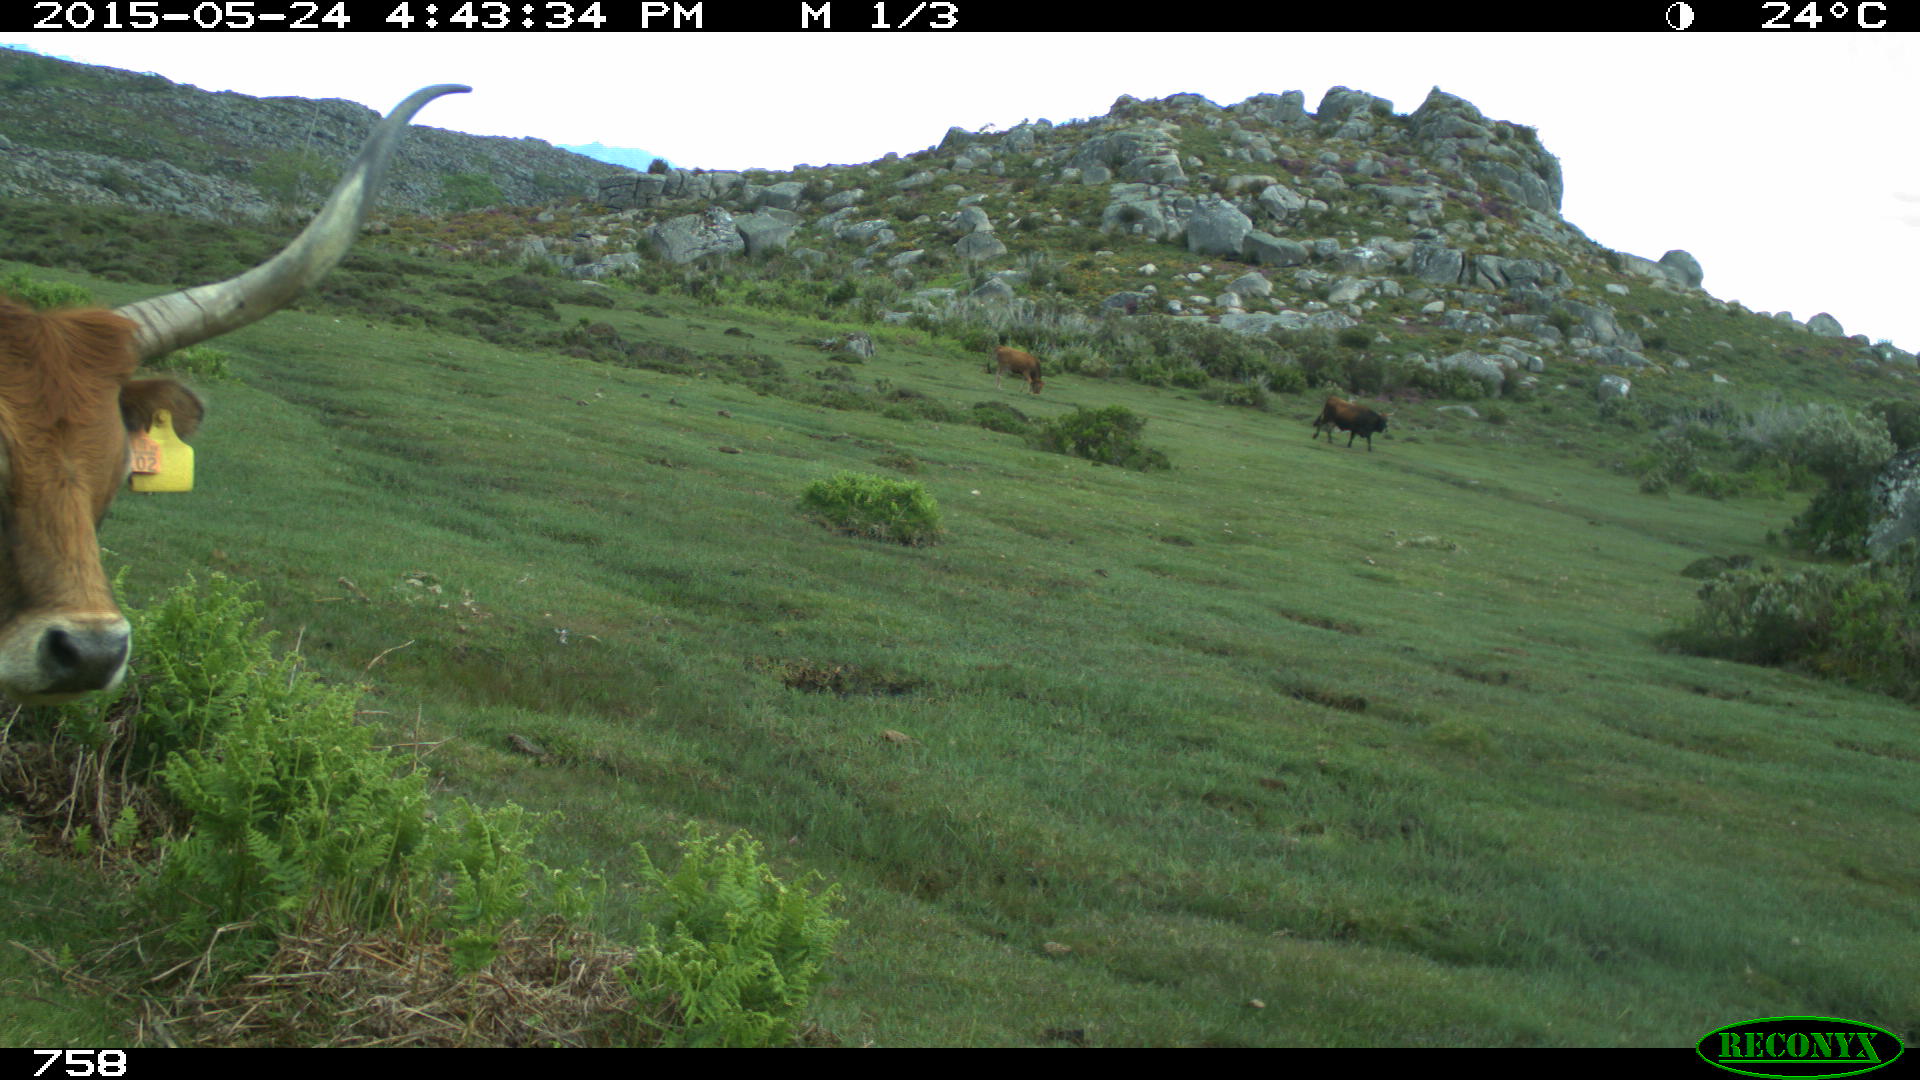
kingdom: Animalia
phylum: Chordata
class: Mammalia
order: Artiodactyla
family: Bovidae
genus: Bos
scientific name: Bos taurus
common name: Domesticated cattle
